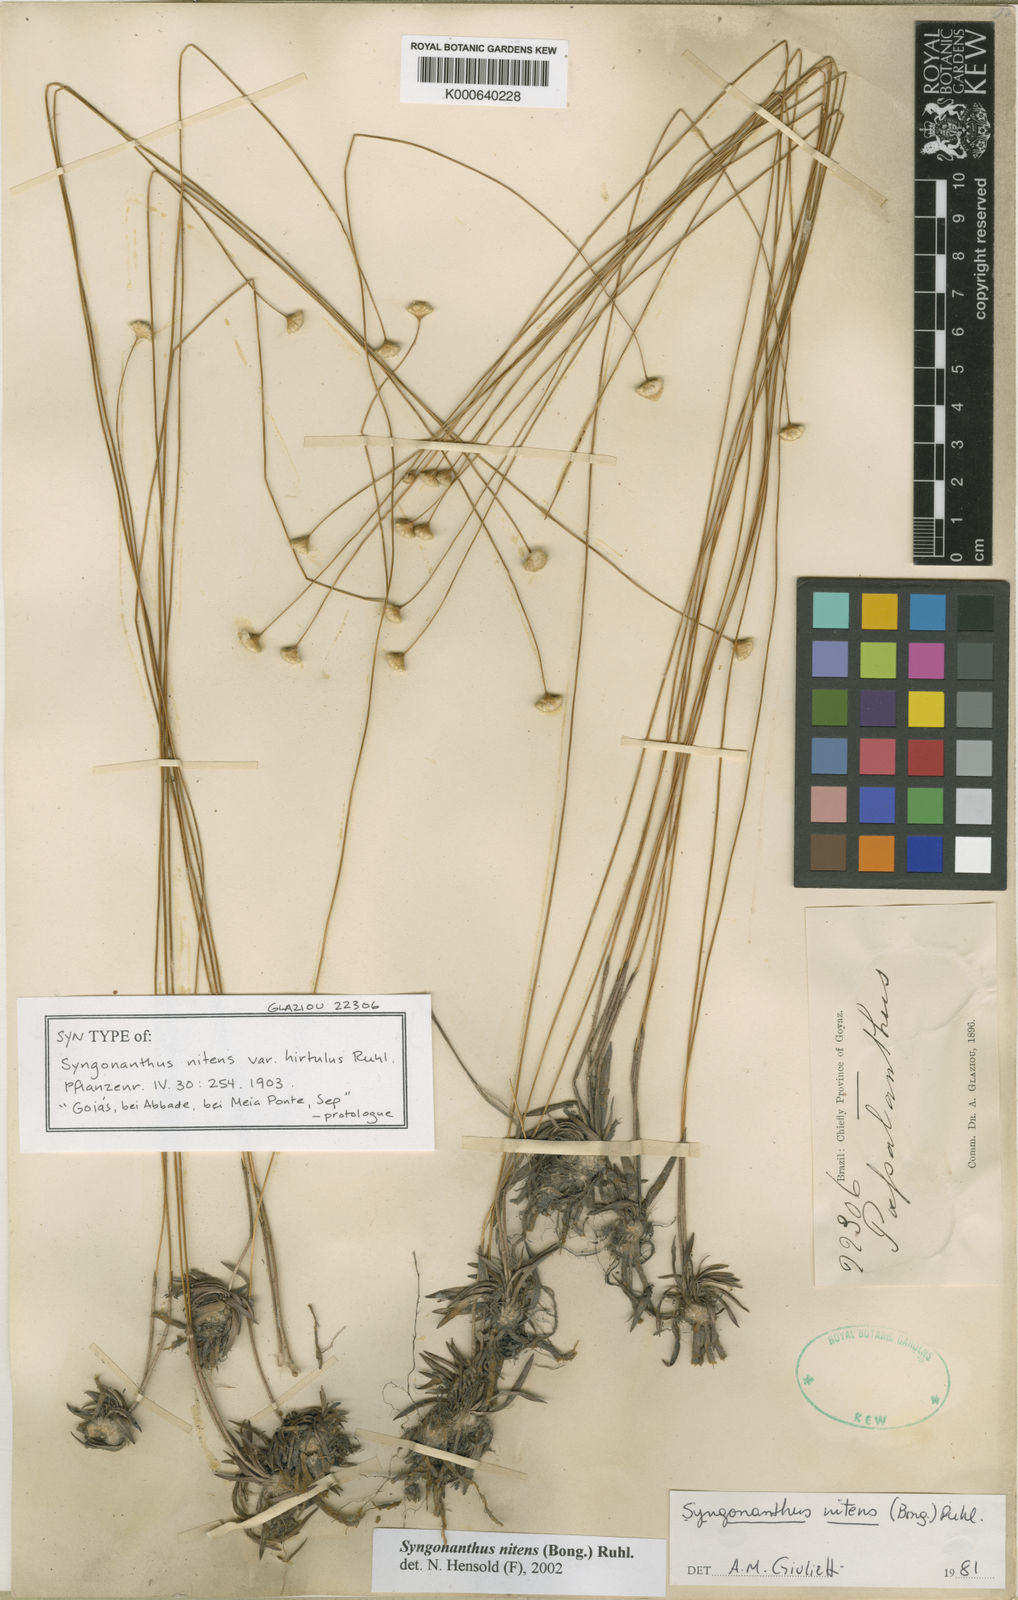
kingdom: Plantae
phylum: Tracheophyta
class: Liliopsida
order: Poales
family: Eriocaulaceae
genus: Syngonanthus
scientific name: Syngonanthus nitens
